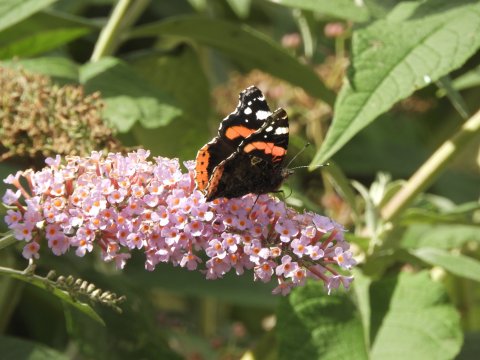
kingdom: Animalia
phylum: Arthropoda
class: Insecta
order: Lepidoptera
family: Nymphalidae
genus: Vanessa
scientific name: Vanessa atalanta
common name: Red Admiral
